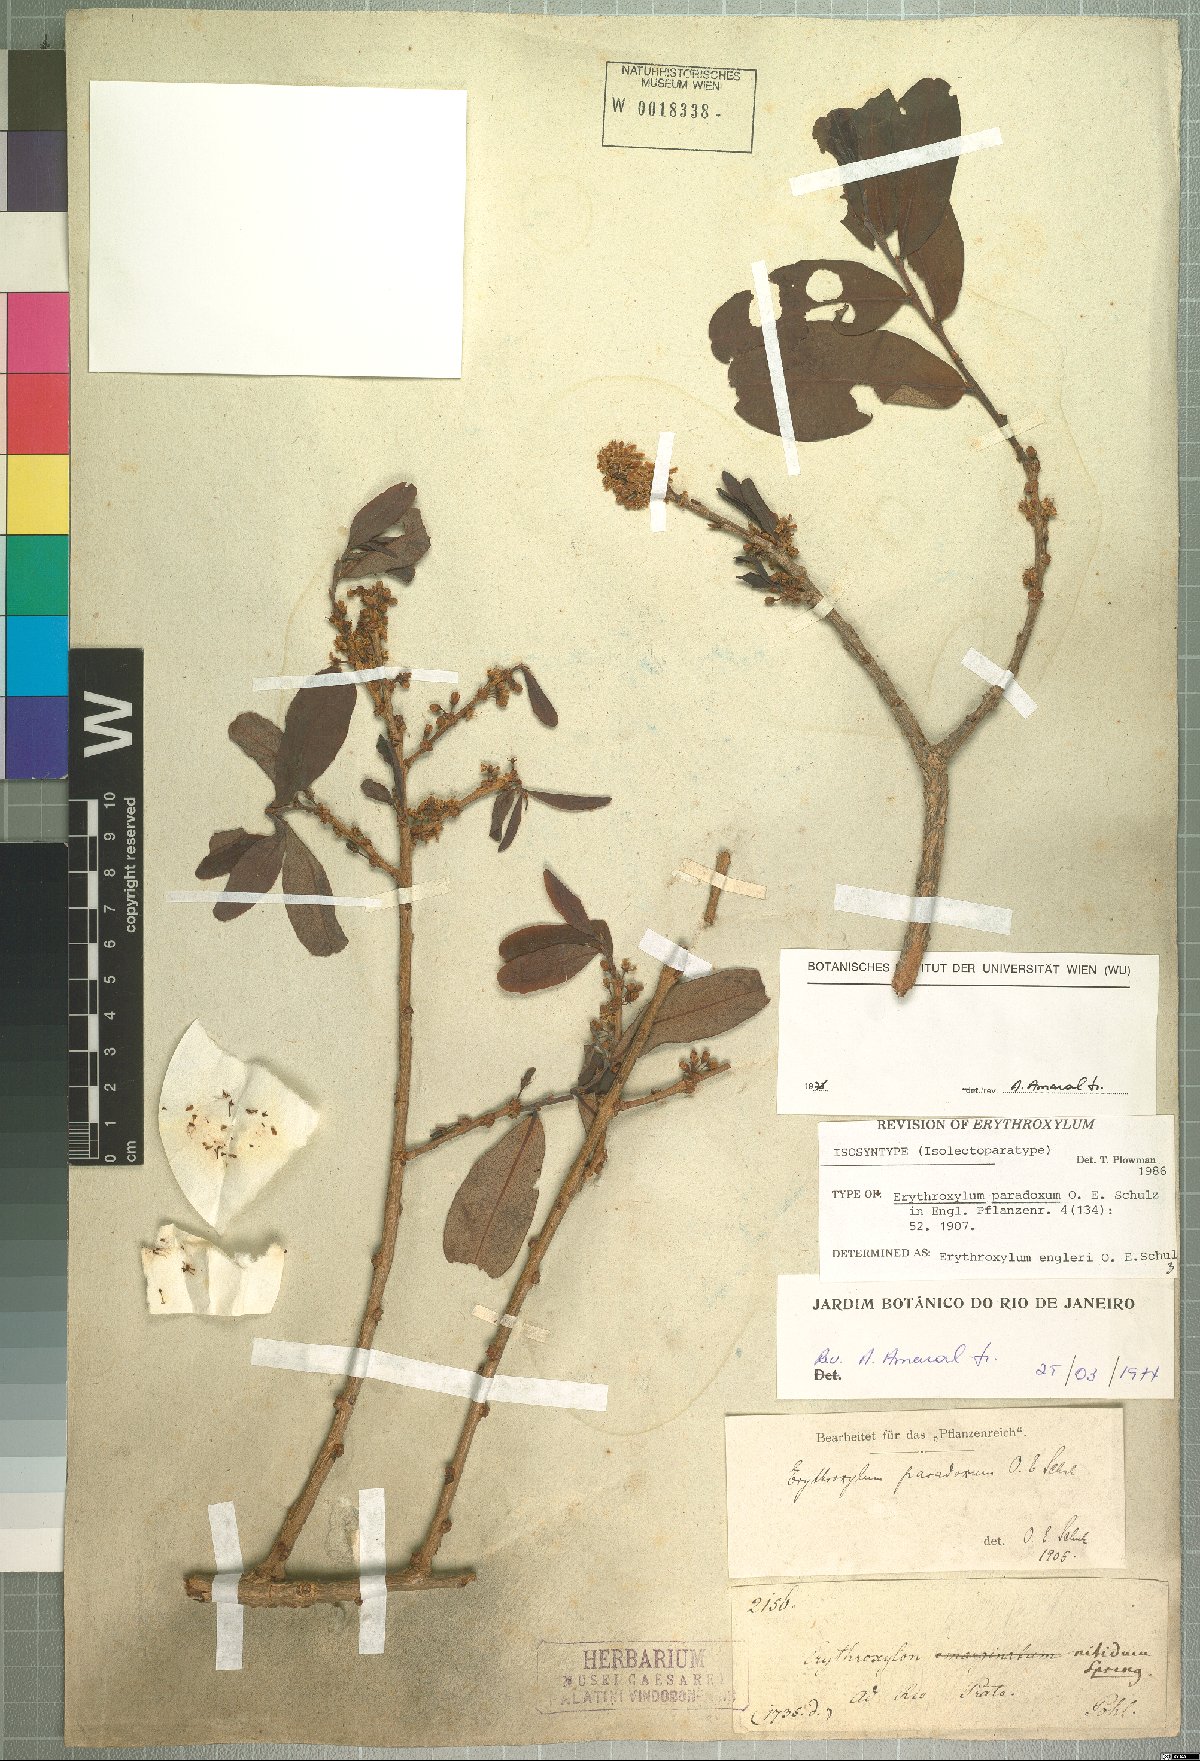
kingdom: Plantae
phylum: Tracheophyta
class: Magnoliopsida
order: Malpighiales
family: Erythroxylaceae
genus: Erythroxylum
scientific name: Erythroxylum engleri
